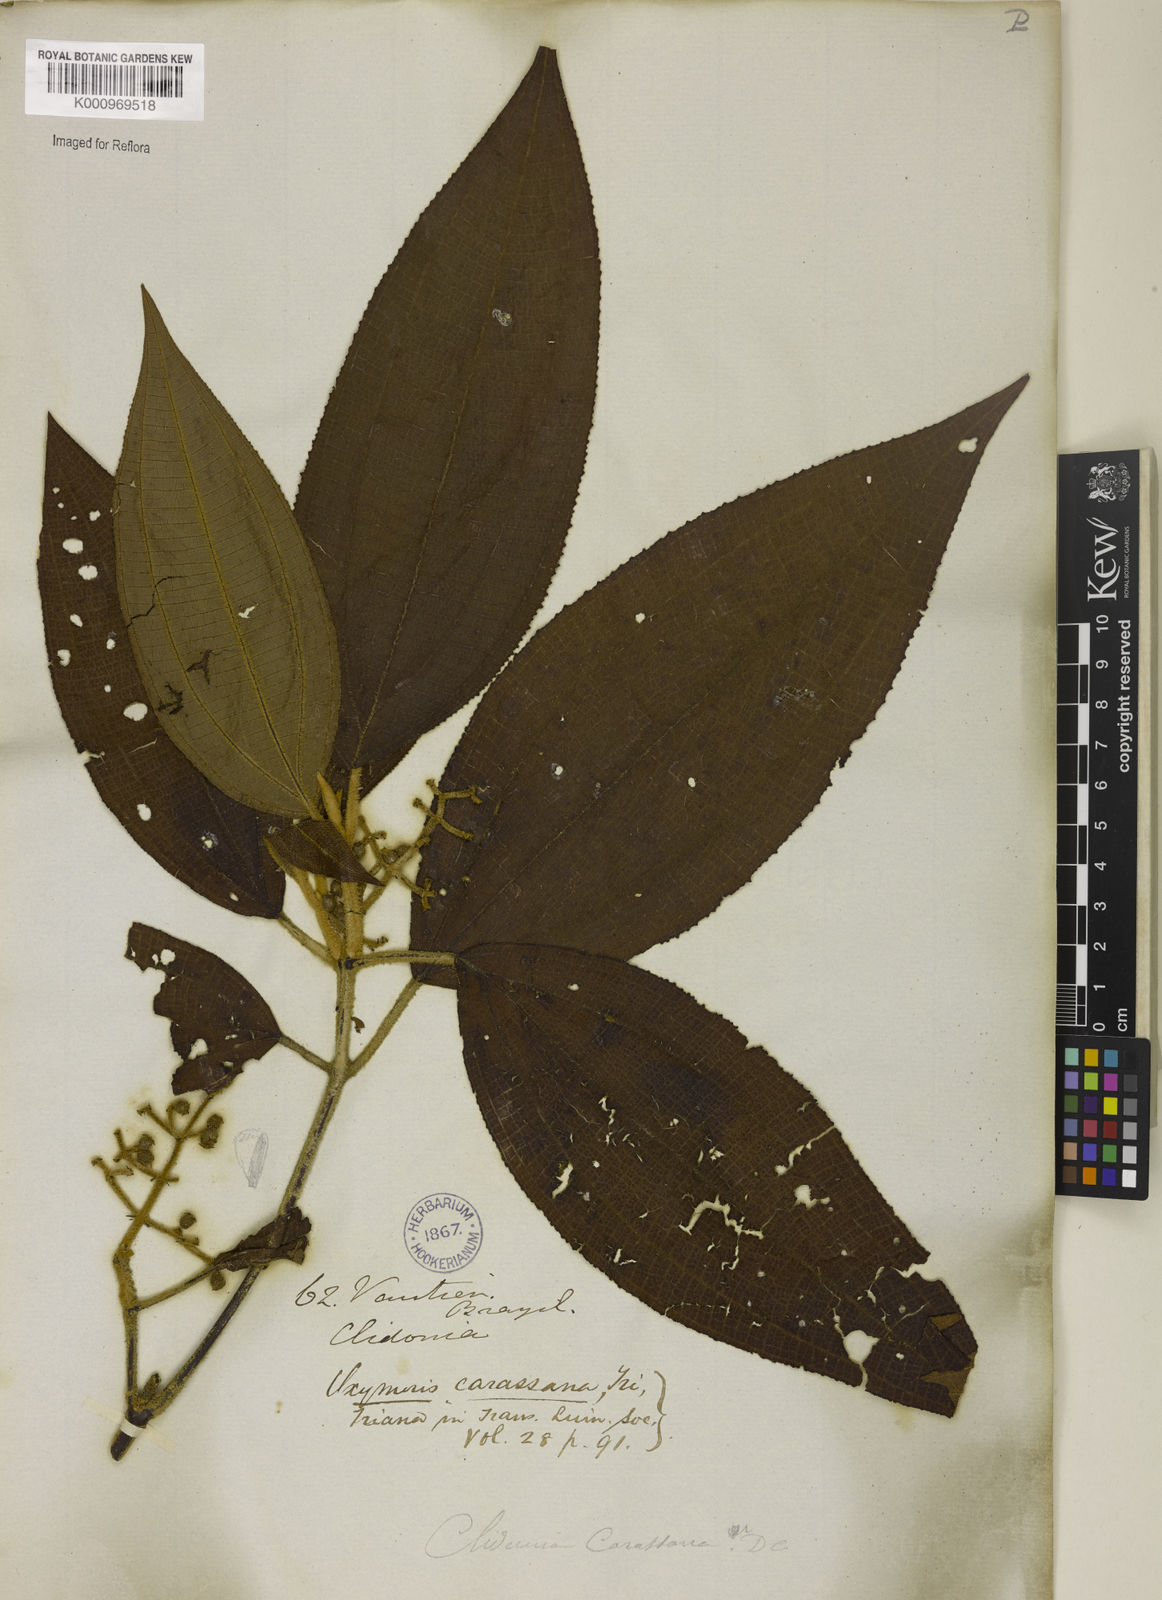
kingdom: Plantae
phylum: Tracheophyta
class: Magnoliopsida
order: Myrtales
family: Melastomataceae
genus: Miconia
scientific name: Miconia sublanata
